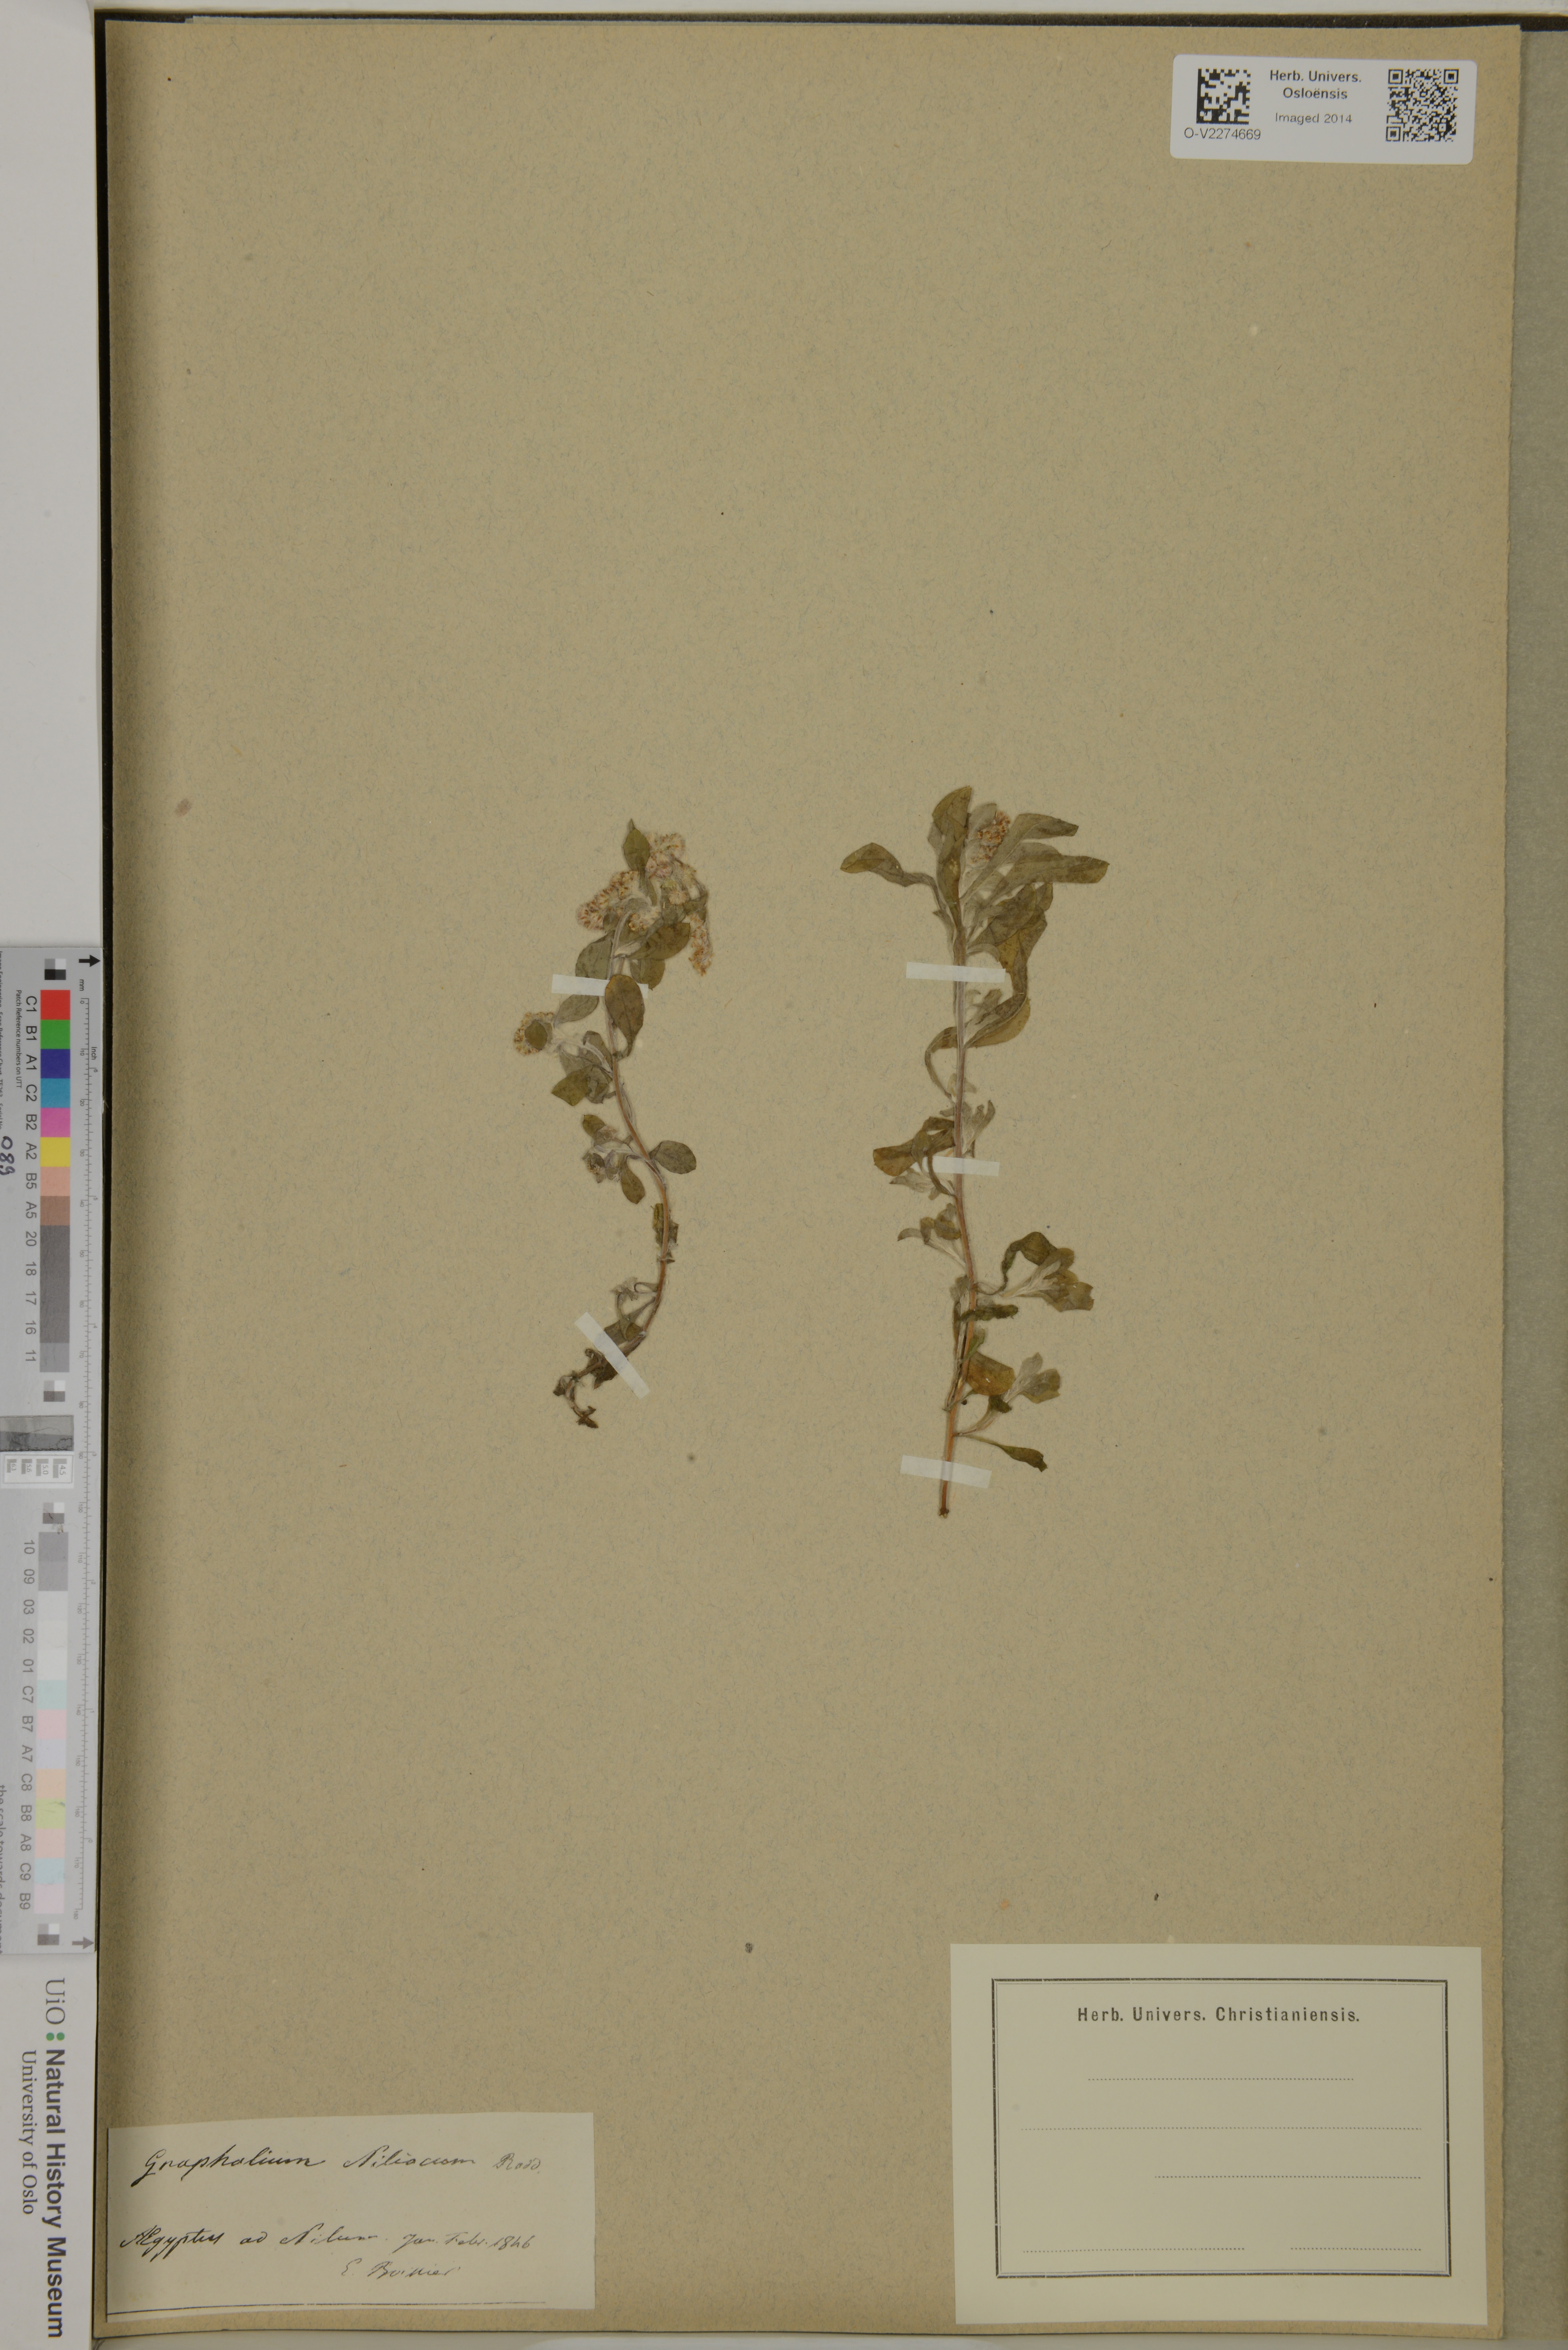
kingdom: Plantae
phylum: Tracheophyta
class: Magnoliopsida
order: Asterales
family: Asteraceae
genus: Gnaphalium
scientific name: Gnaphalium polycaulon
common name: Western cudweed
